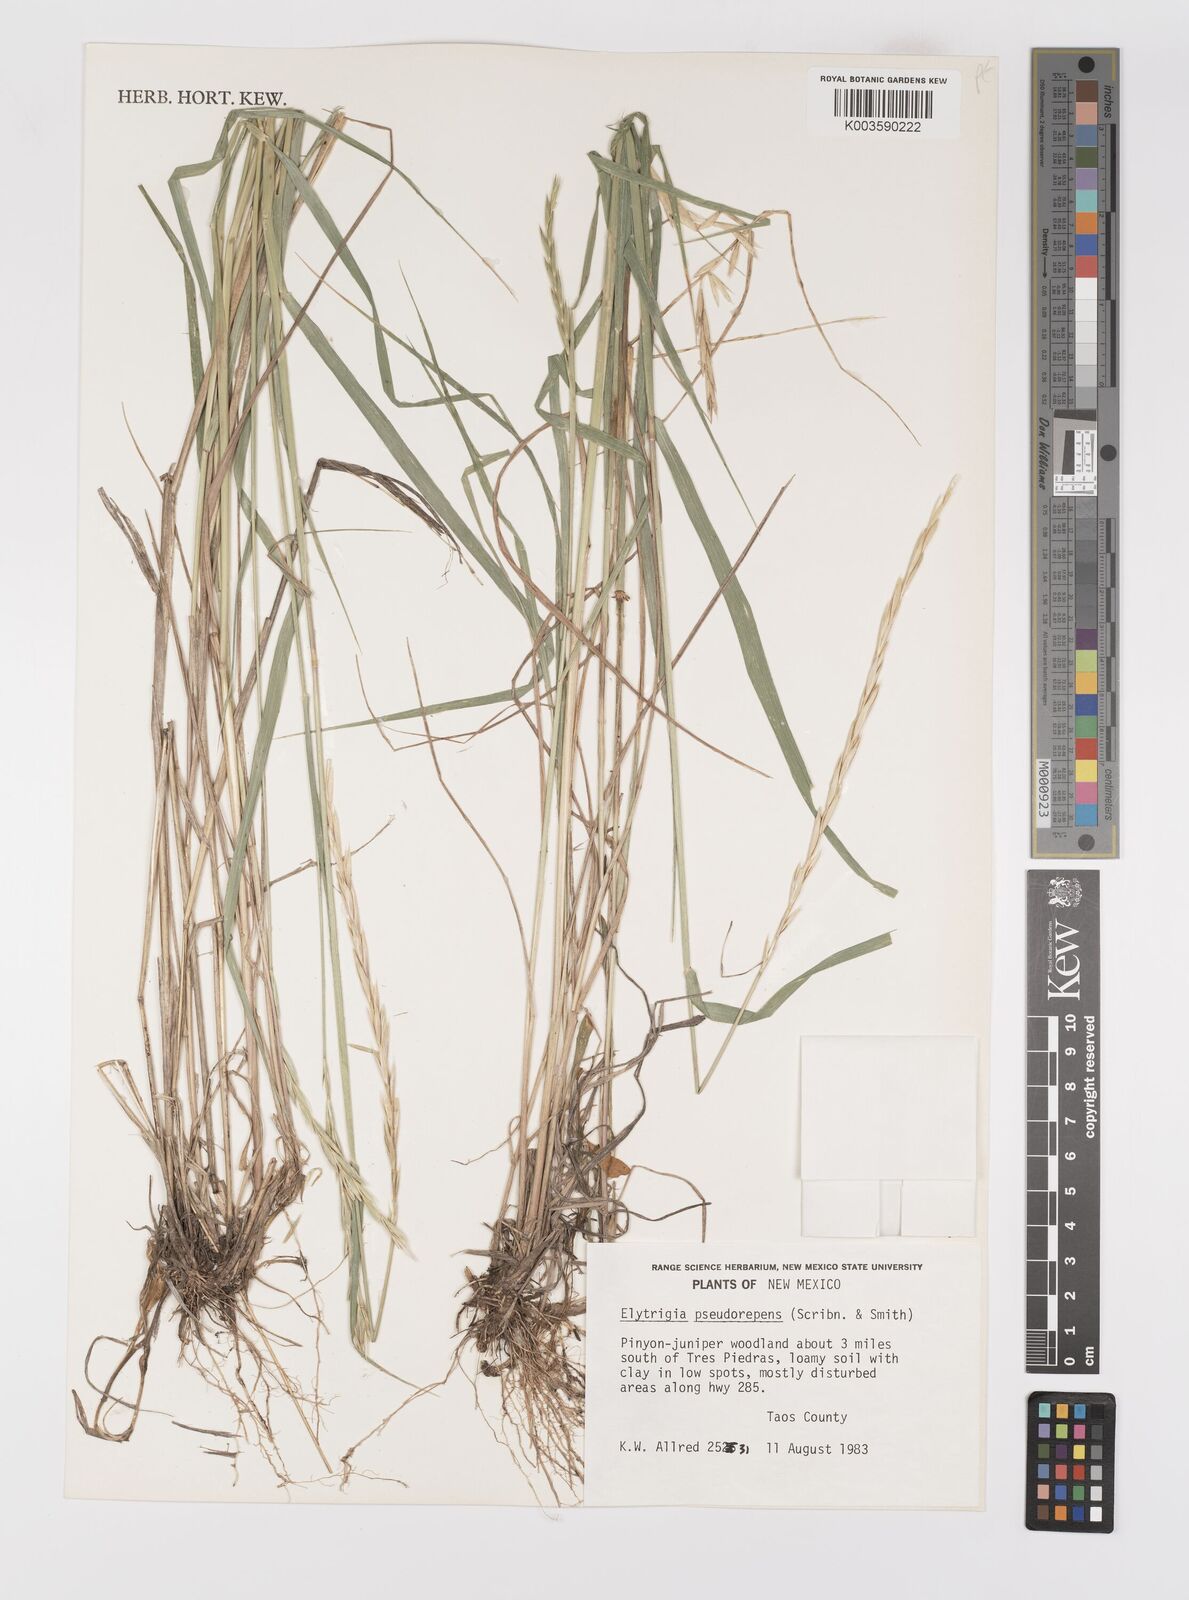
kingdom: Plantae
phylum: Tracheophyta
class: Liliopsida
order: Poales
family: Poaceae
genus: Elymus
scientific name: Elymus violaceus
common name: Arctic wheatgrass
